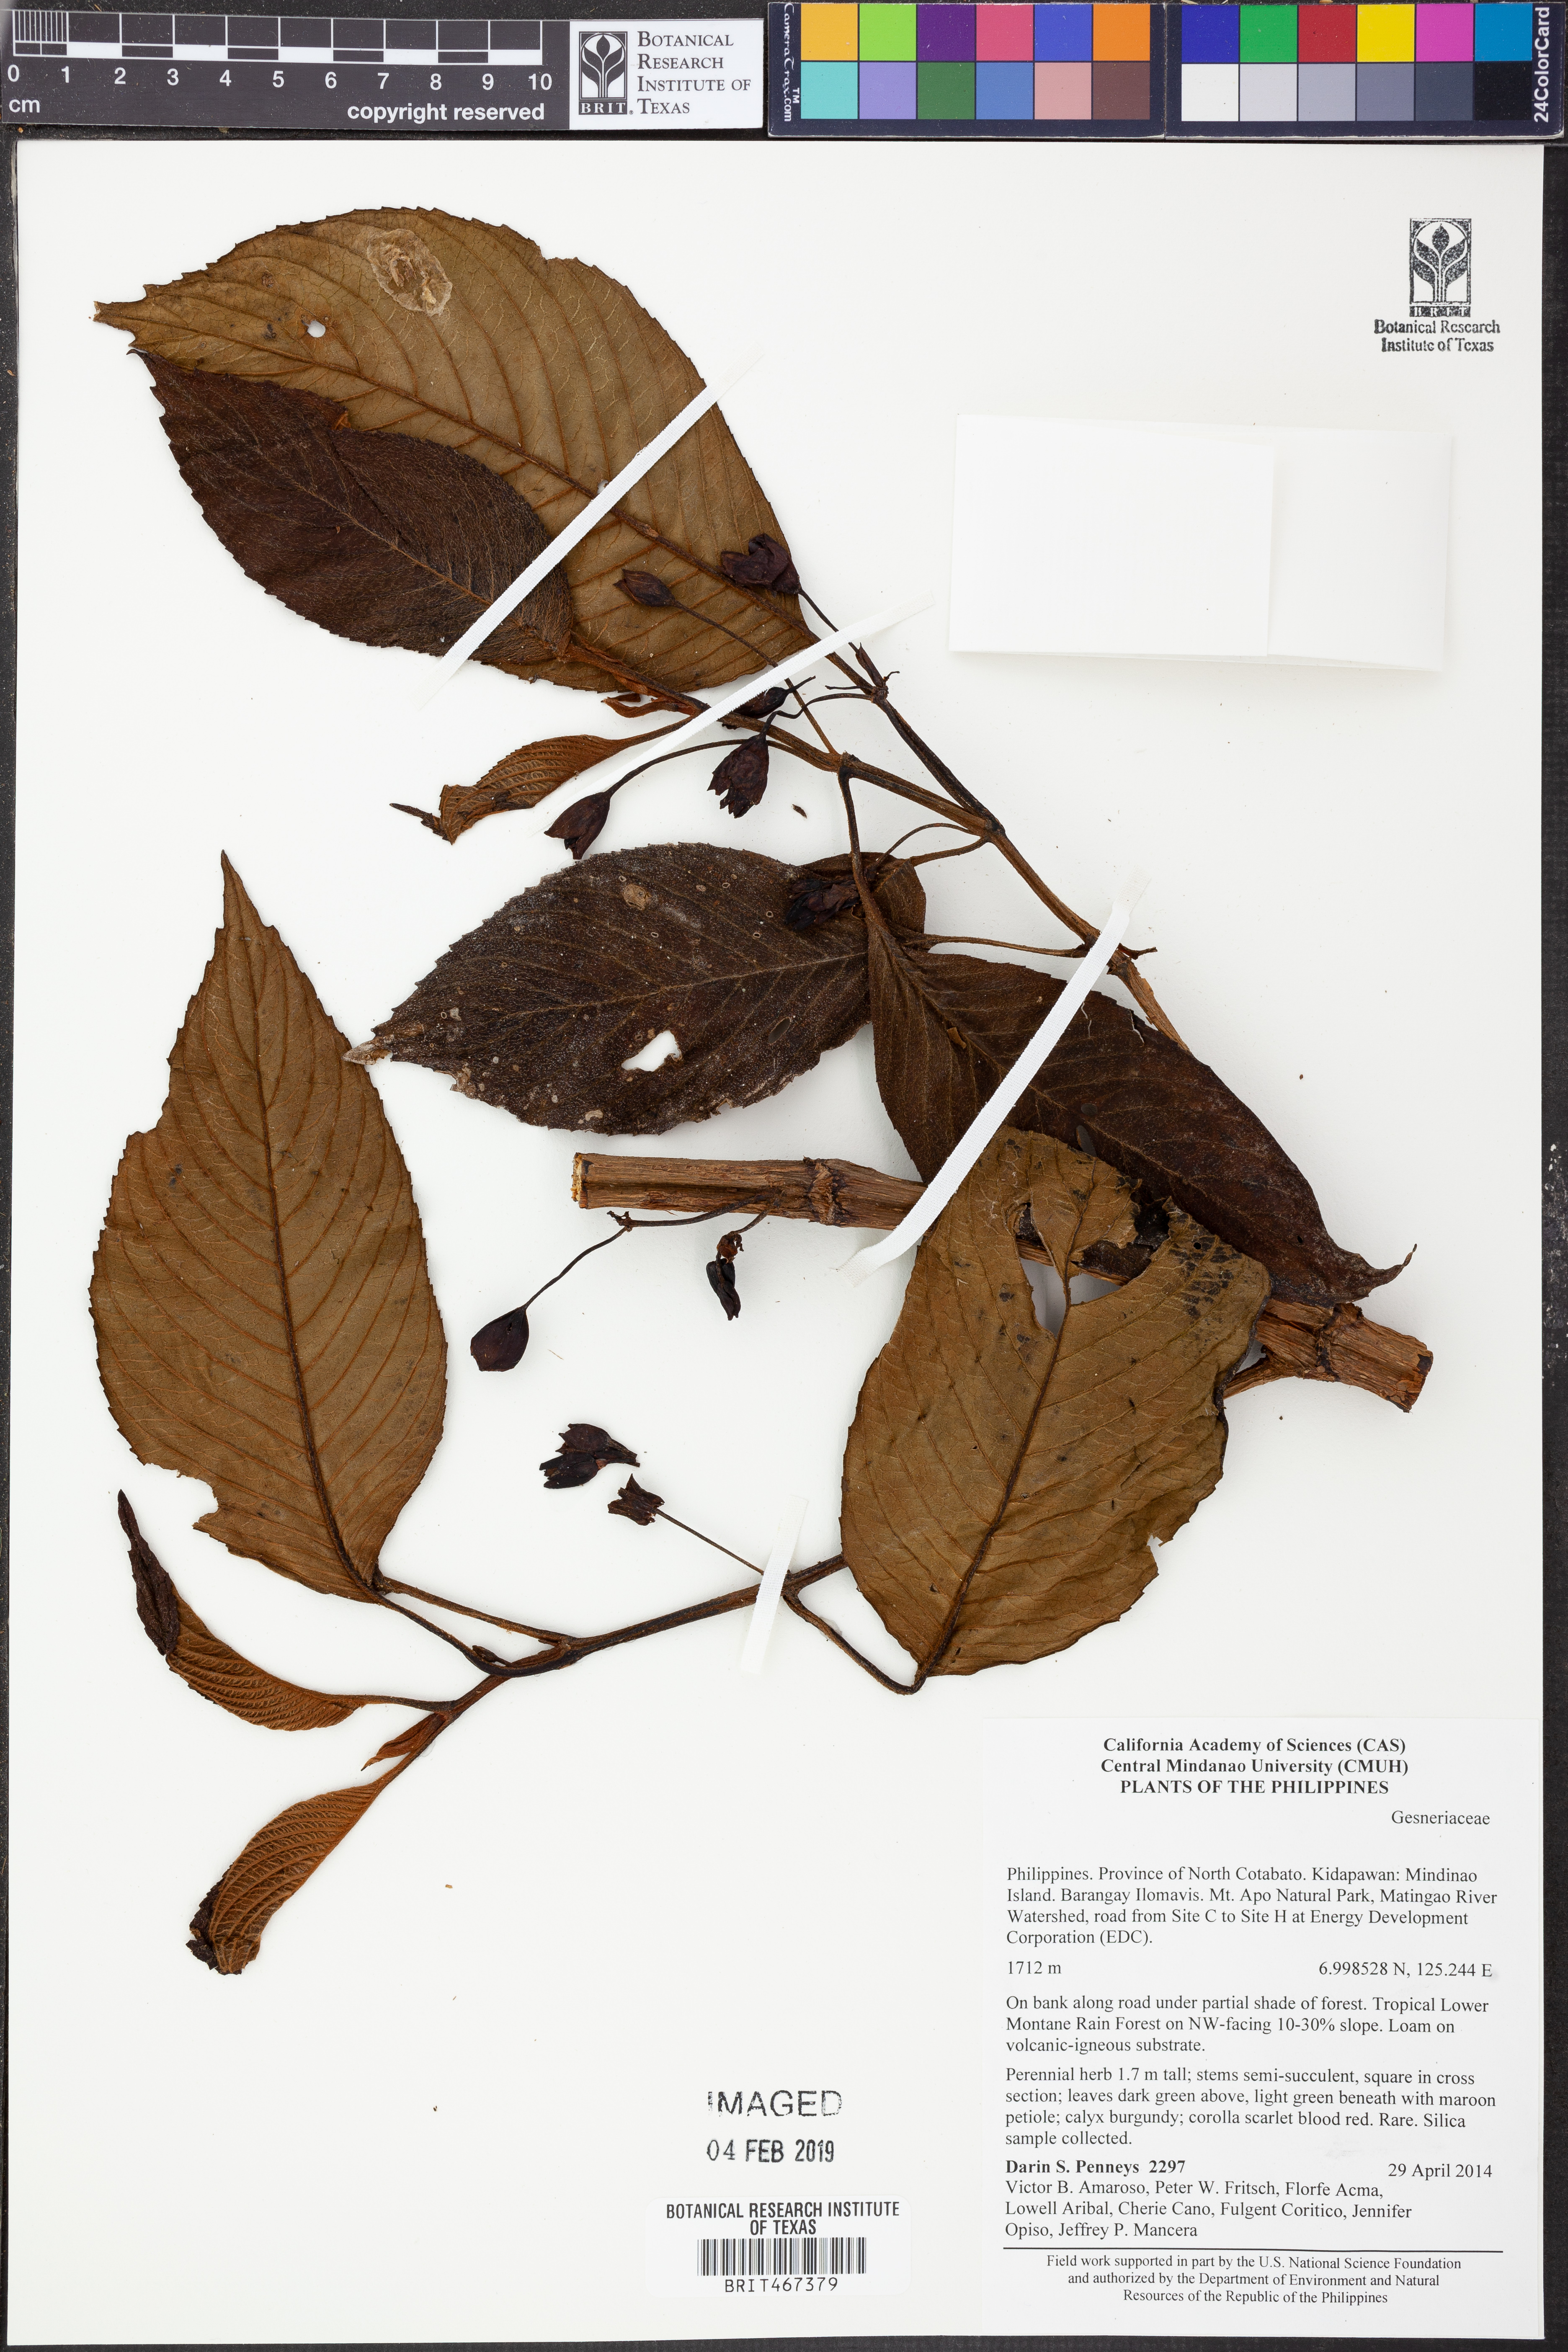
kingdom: Plantae
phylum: Tracheophyta
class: Magnoliopsida
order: Lamiales
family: Gesneriaceae
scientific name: Gesneriaceae
